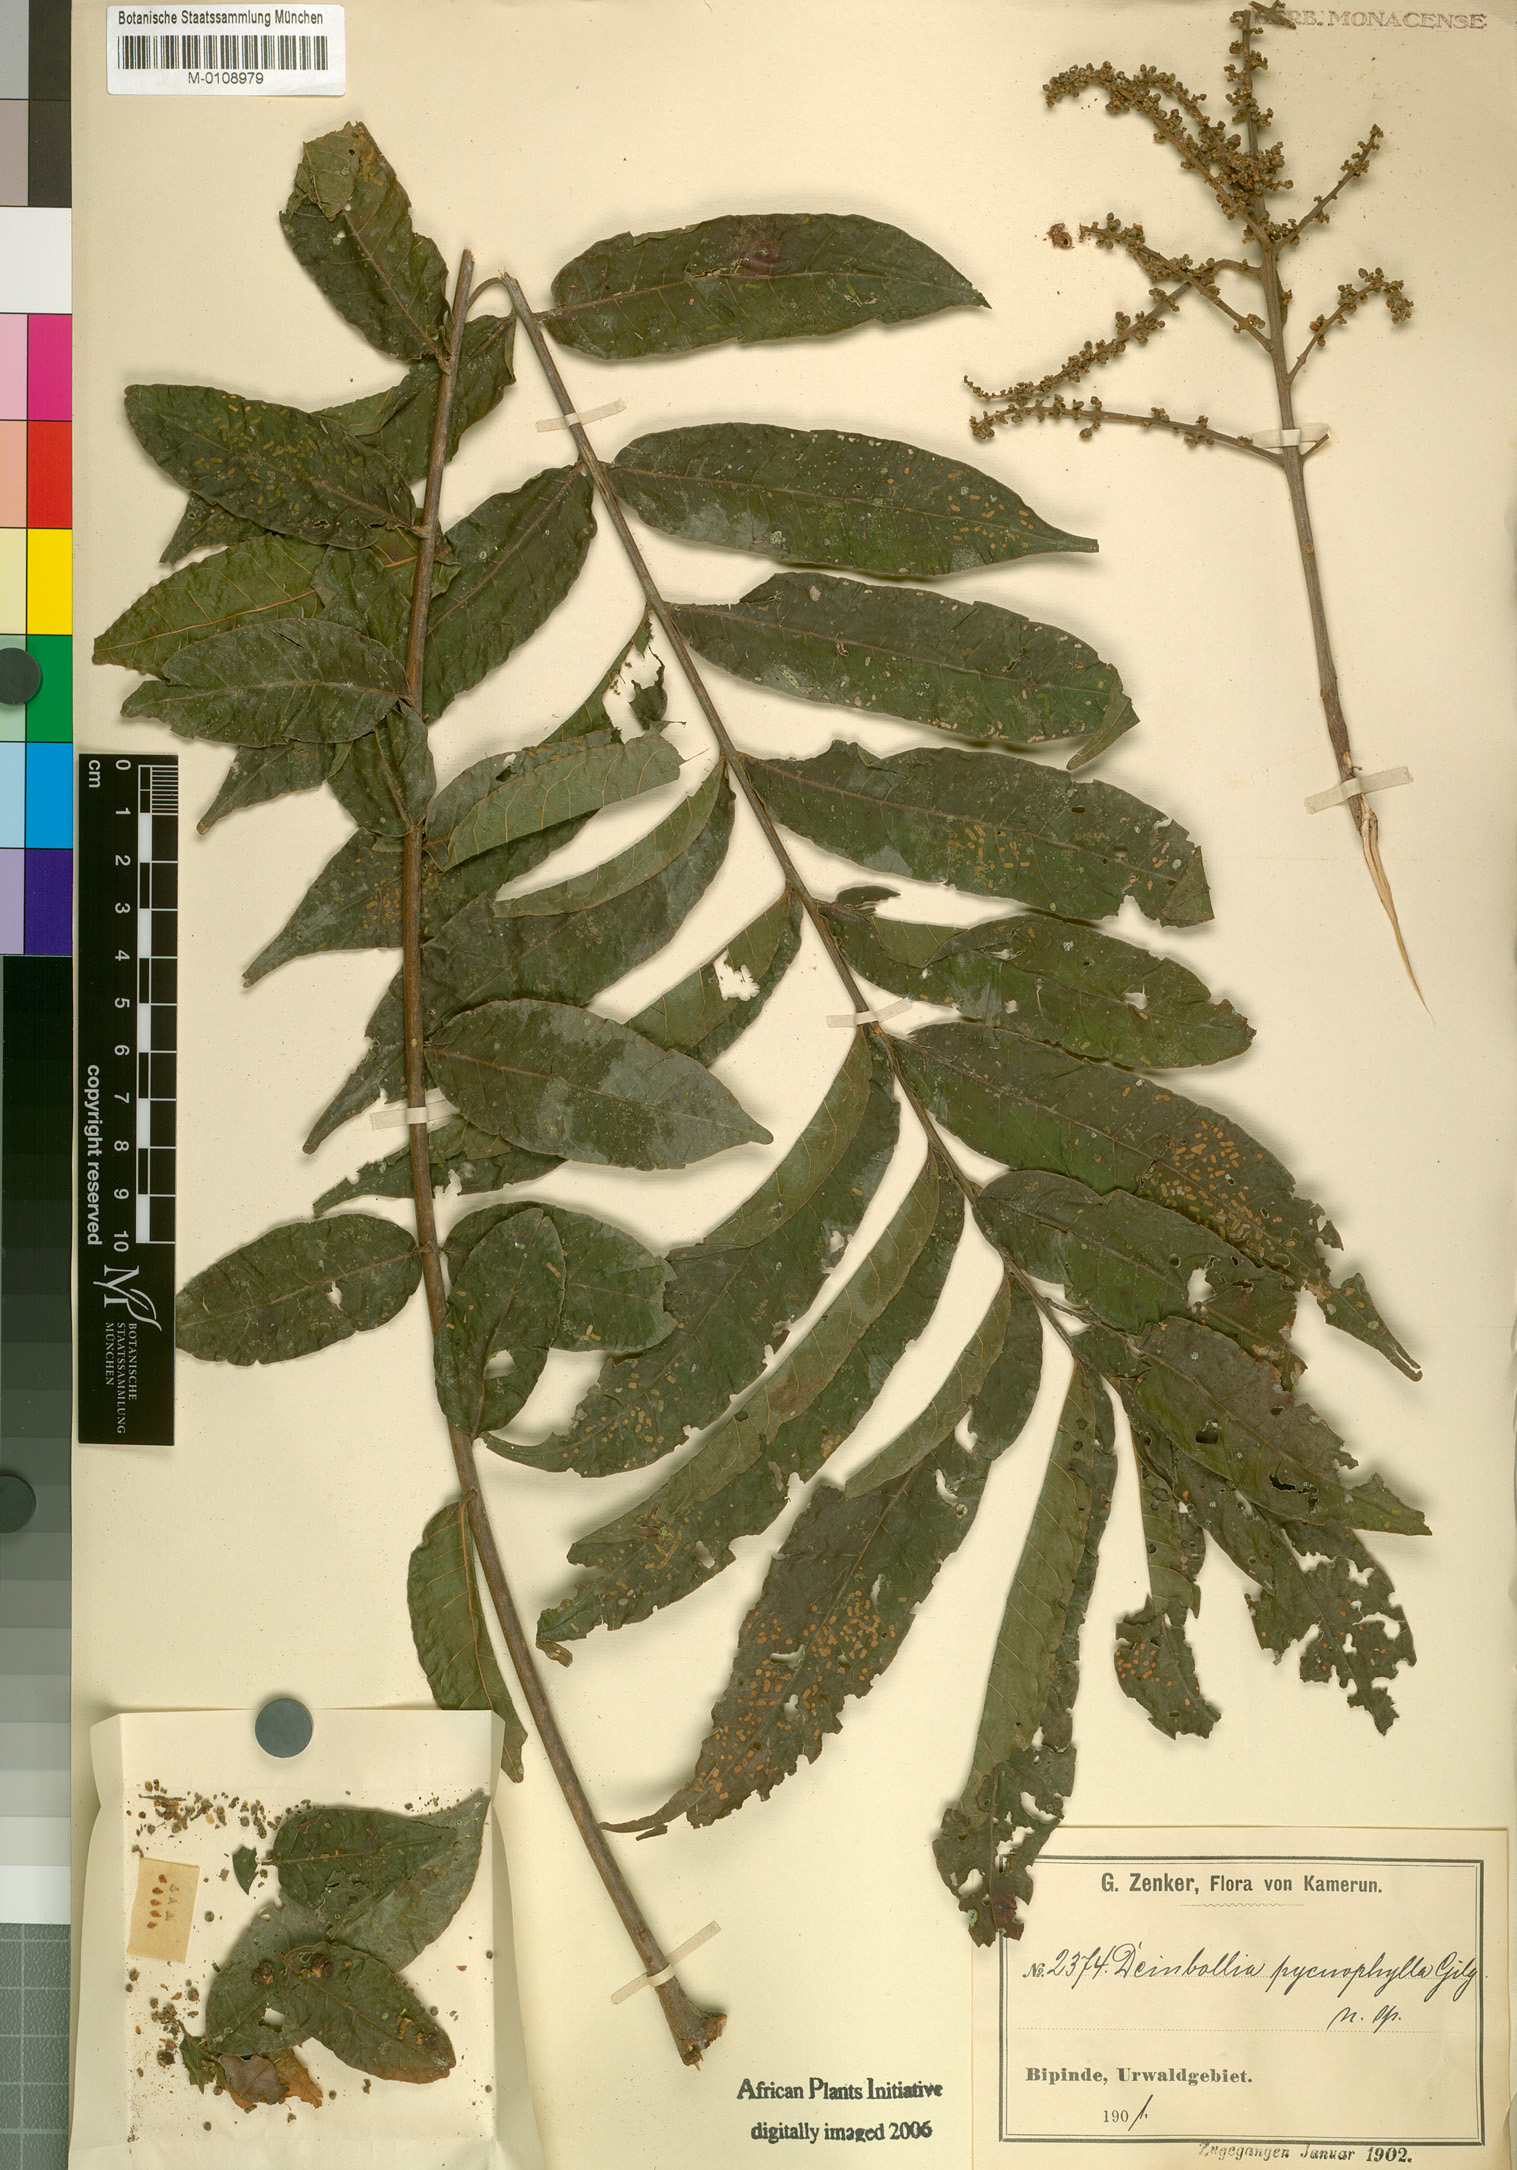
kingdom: Plantae
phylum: Tracheophyta
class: Magnoliopsida
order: Sapindales
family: Sapindaceae
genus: Deinbollia
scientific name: Deinbollia pycnophylla
